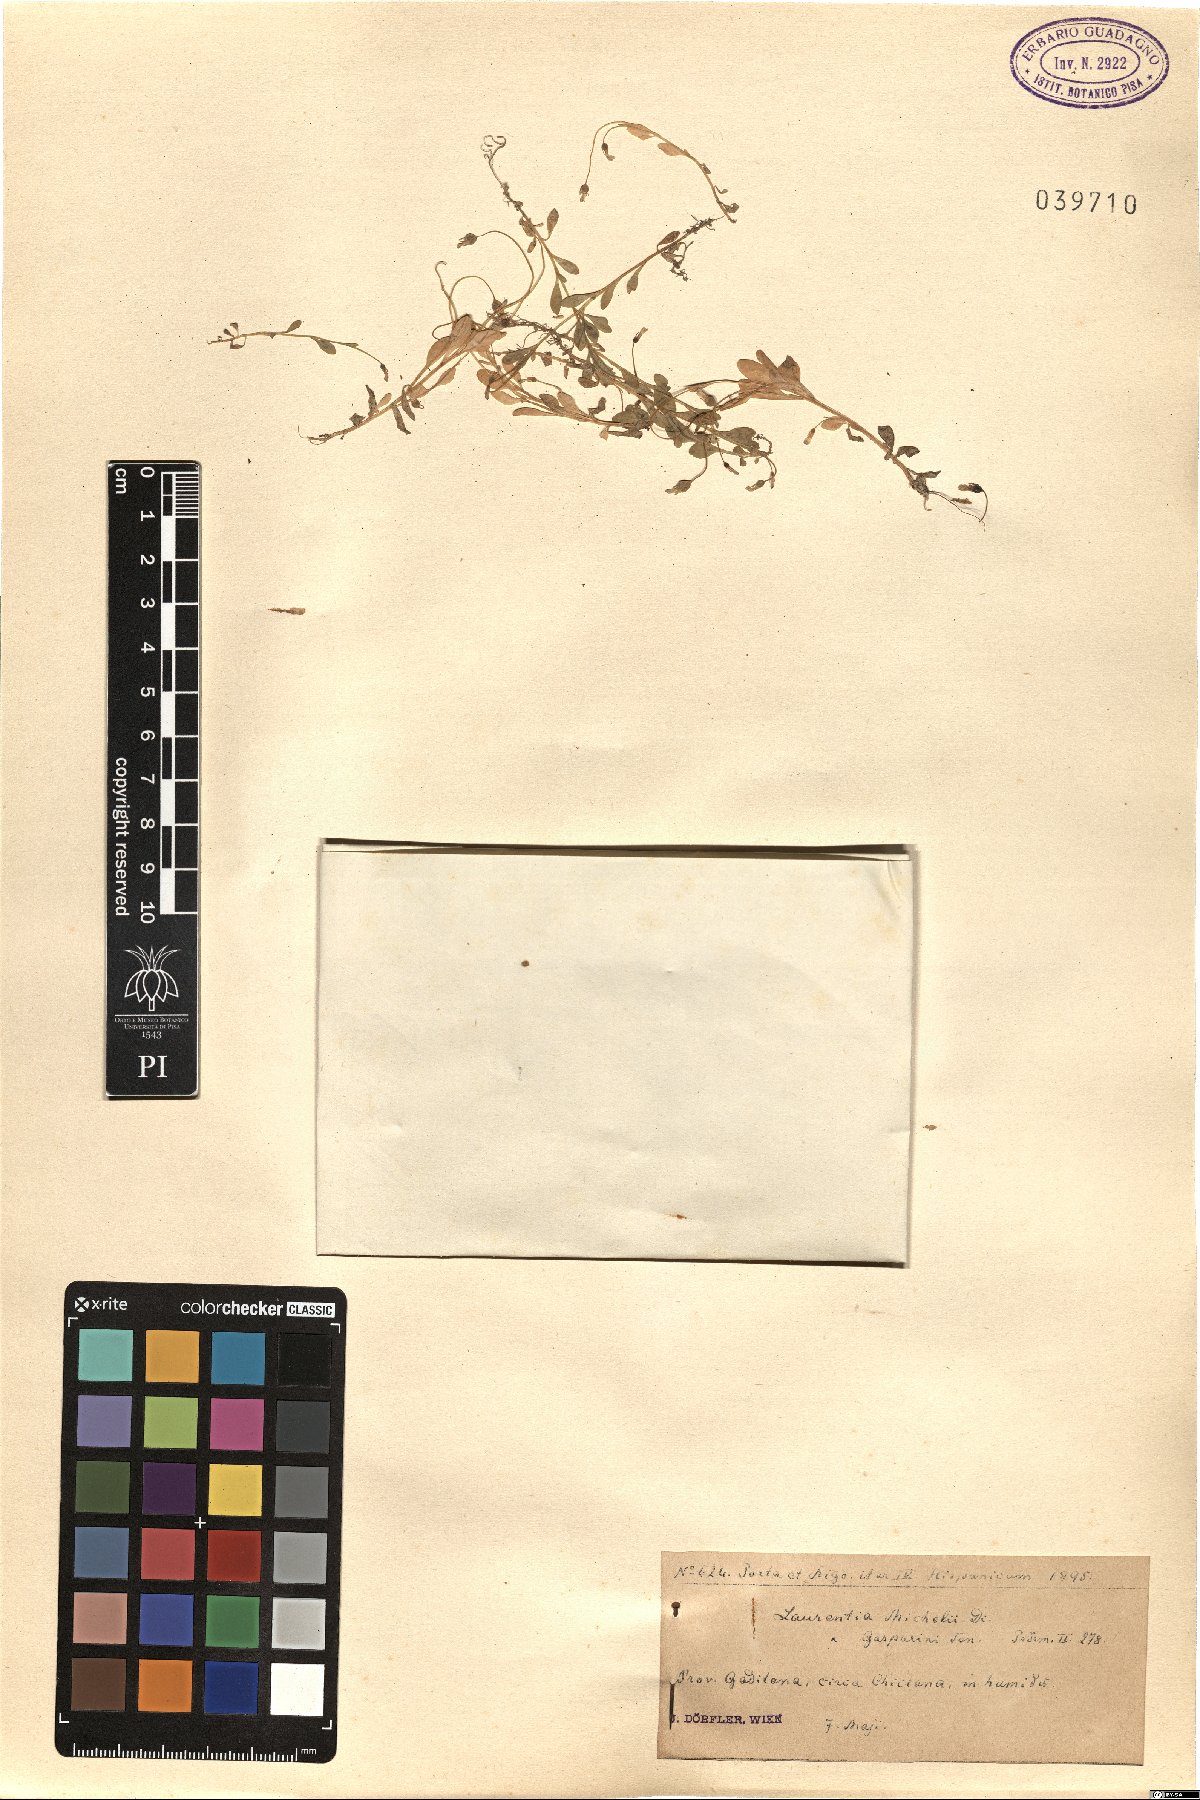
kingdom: Plantae
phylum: Tracheophyta
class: Magnoliopsida
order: Asterales
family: Campanulaceae
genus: Solenopsis
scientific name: Solenopsis laurentia
